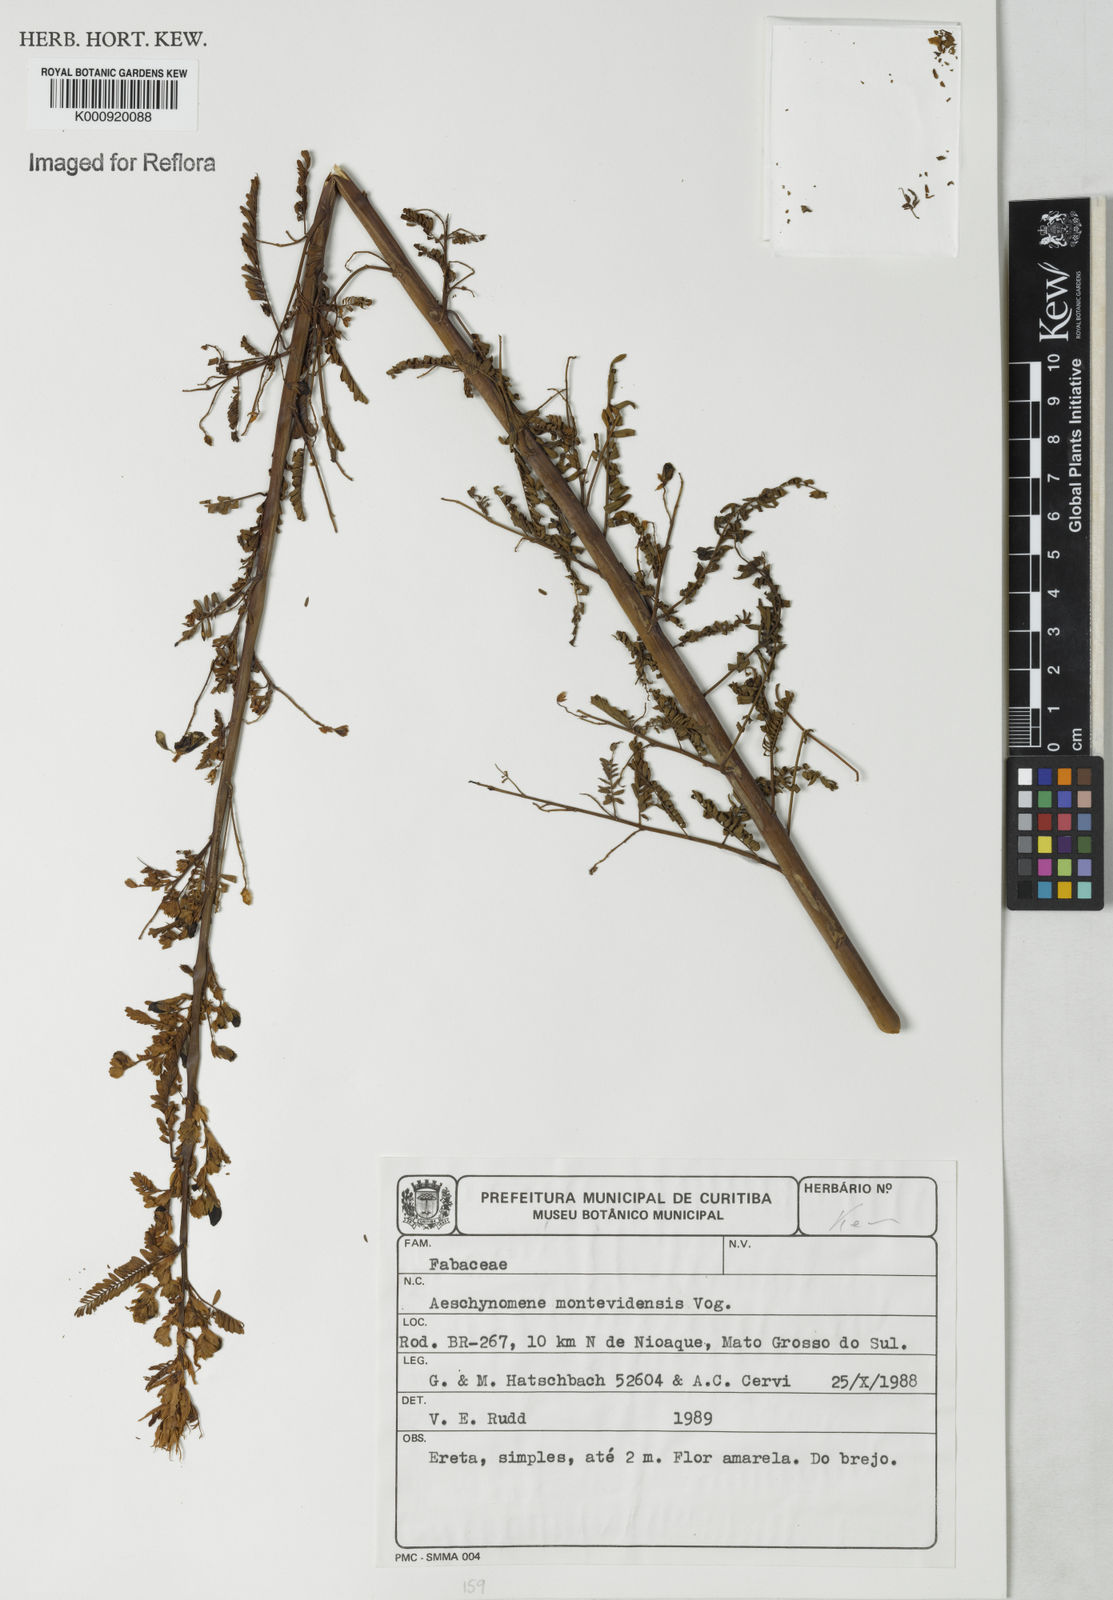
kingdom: Plantae
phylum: Tracheophyta
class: Magnoliopsida
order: Fabales
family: Fabaceae
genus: Aeschynomene
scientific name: Aeschynomene montevidensis
